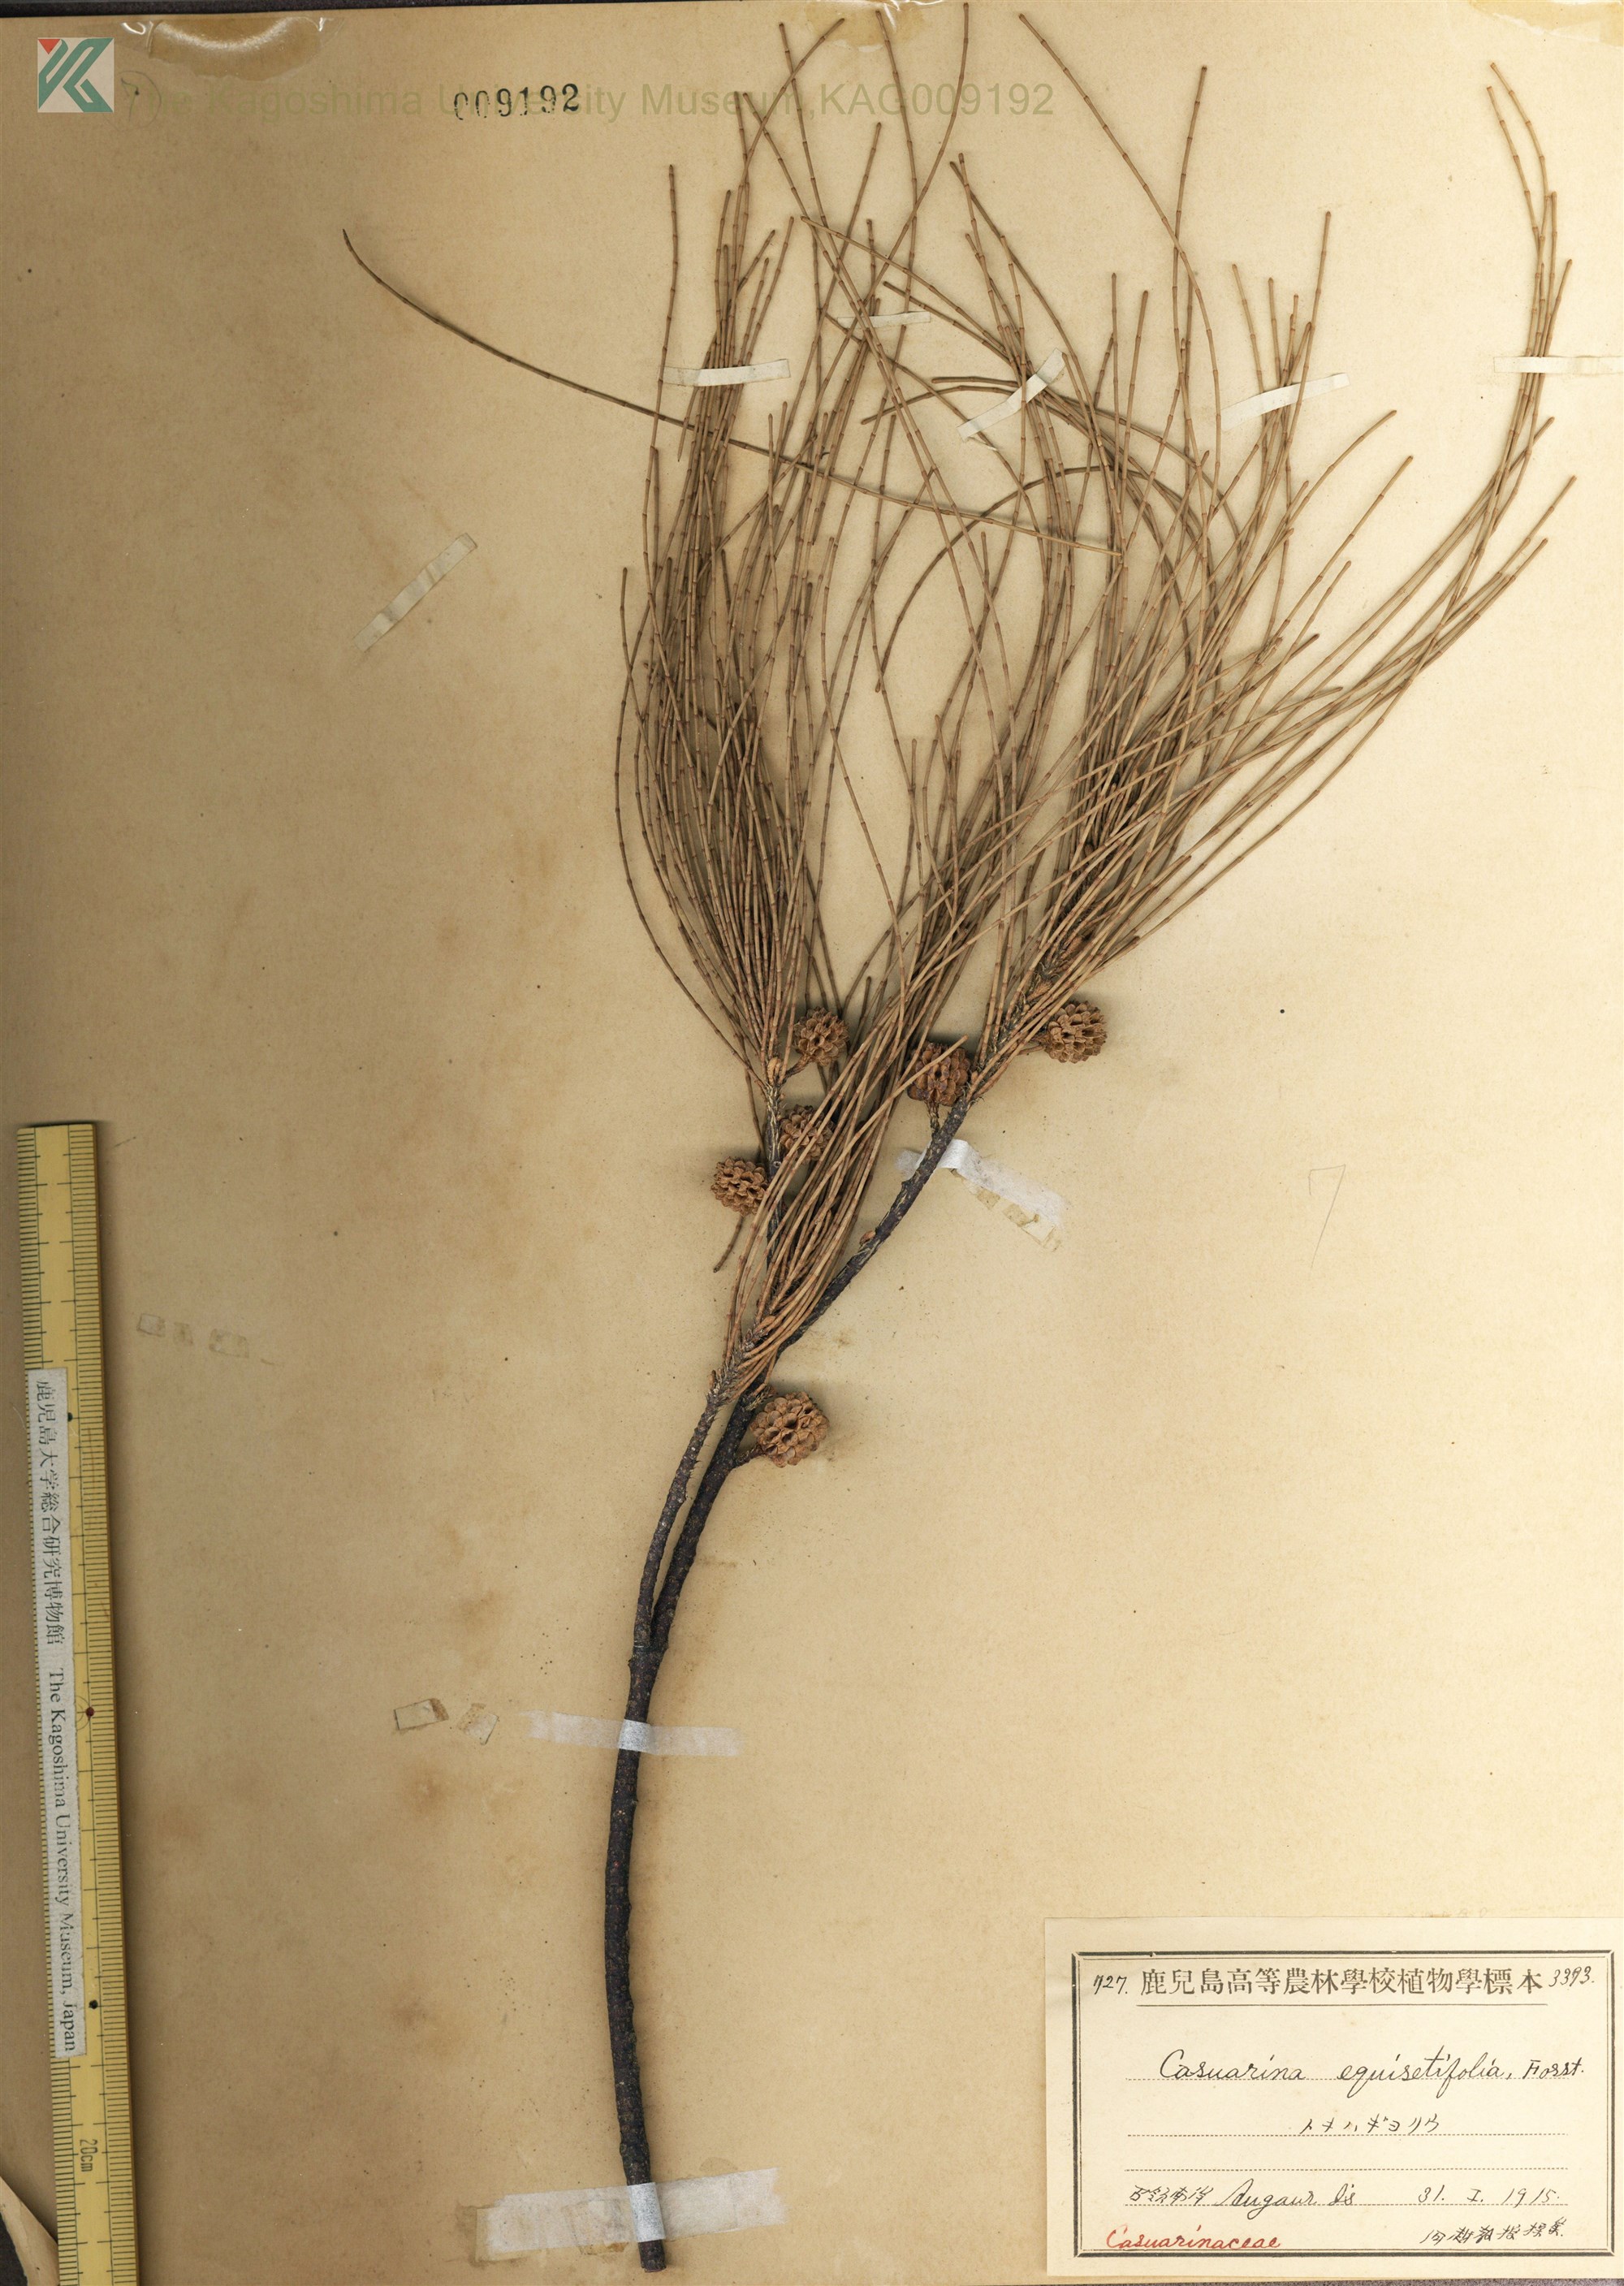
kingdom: Plantae
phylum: Tracheophyta
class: Magnoliopsida
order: Fagales
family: Casuarinaceae
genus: Casuarina
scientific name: Casuarina equisetifolia
